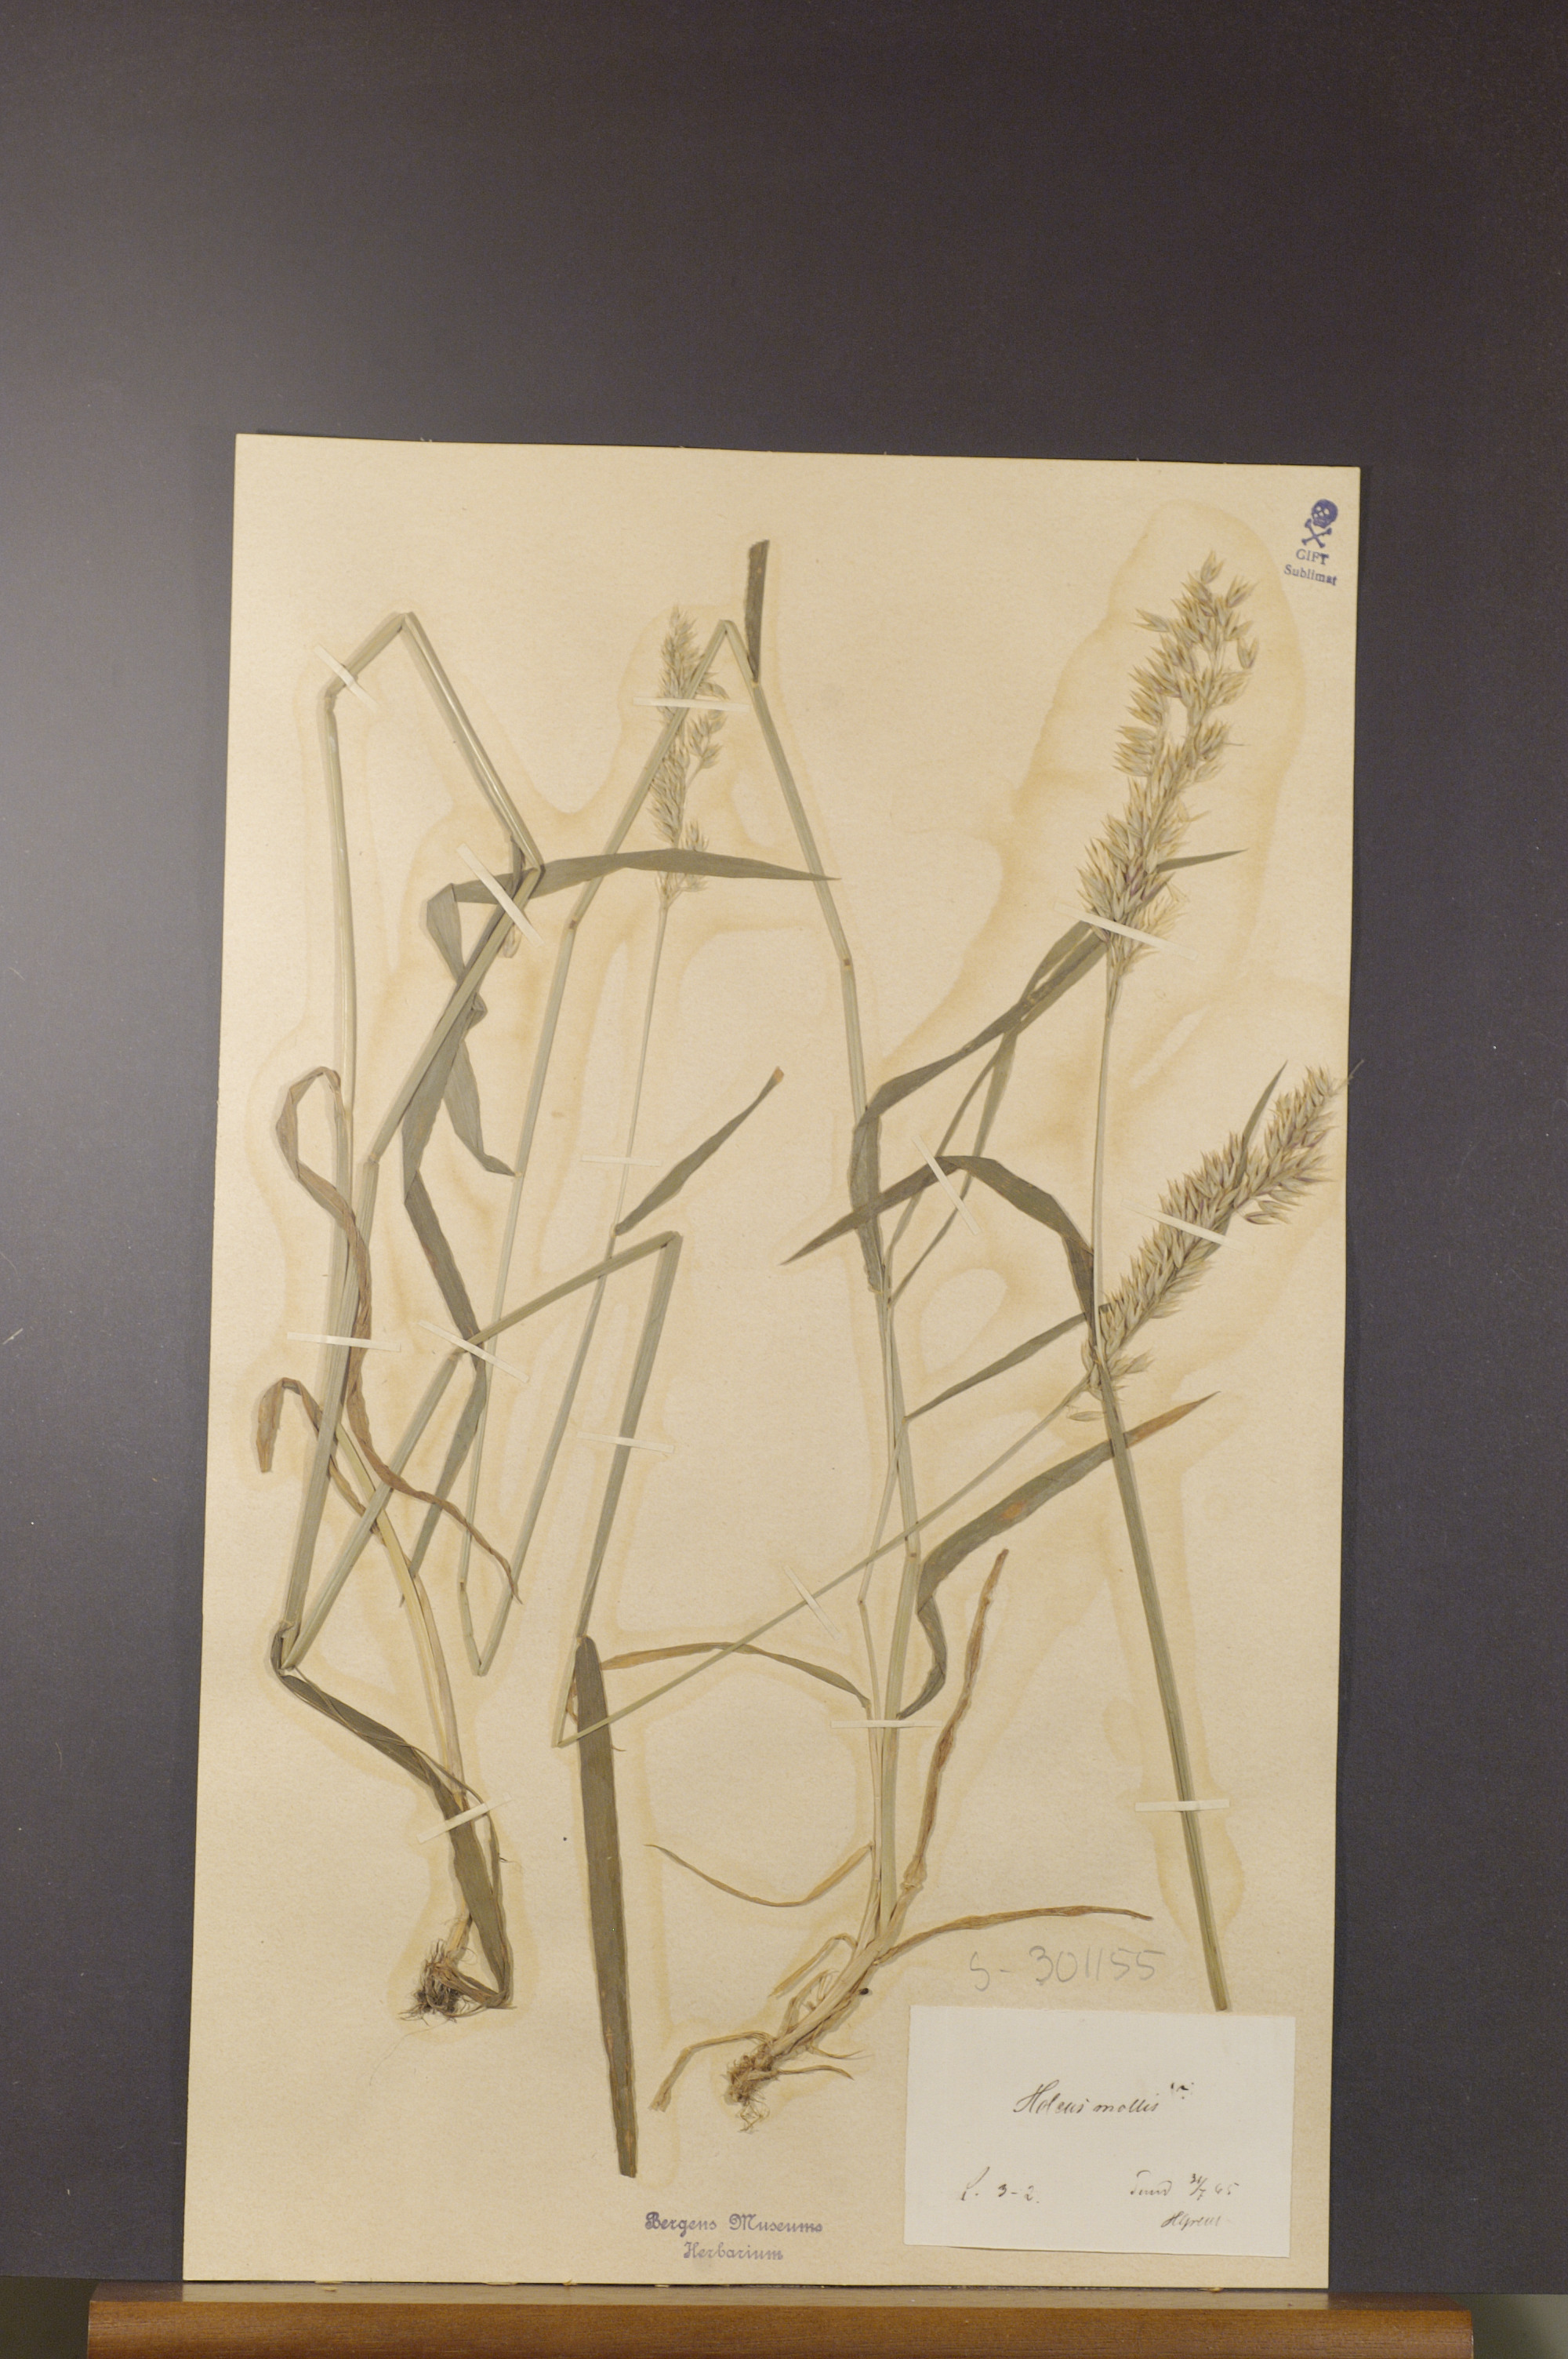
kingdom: Plantae
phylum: Tracheophyta
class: Liliopsida
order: Poales
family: Poaceae
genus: Holcus
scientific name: Holcus mollis
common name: Creeping velvetgrass
